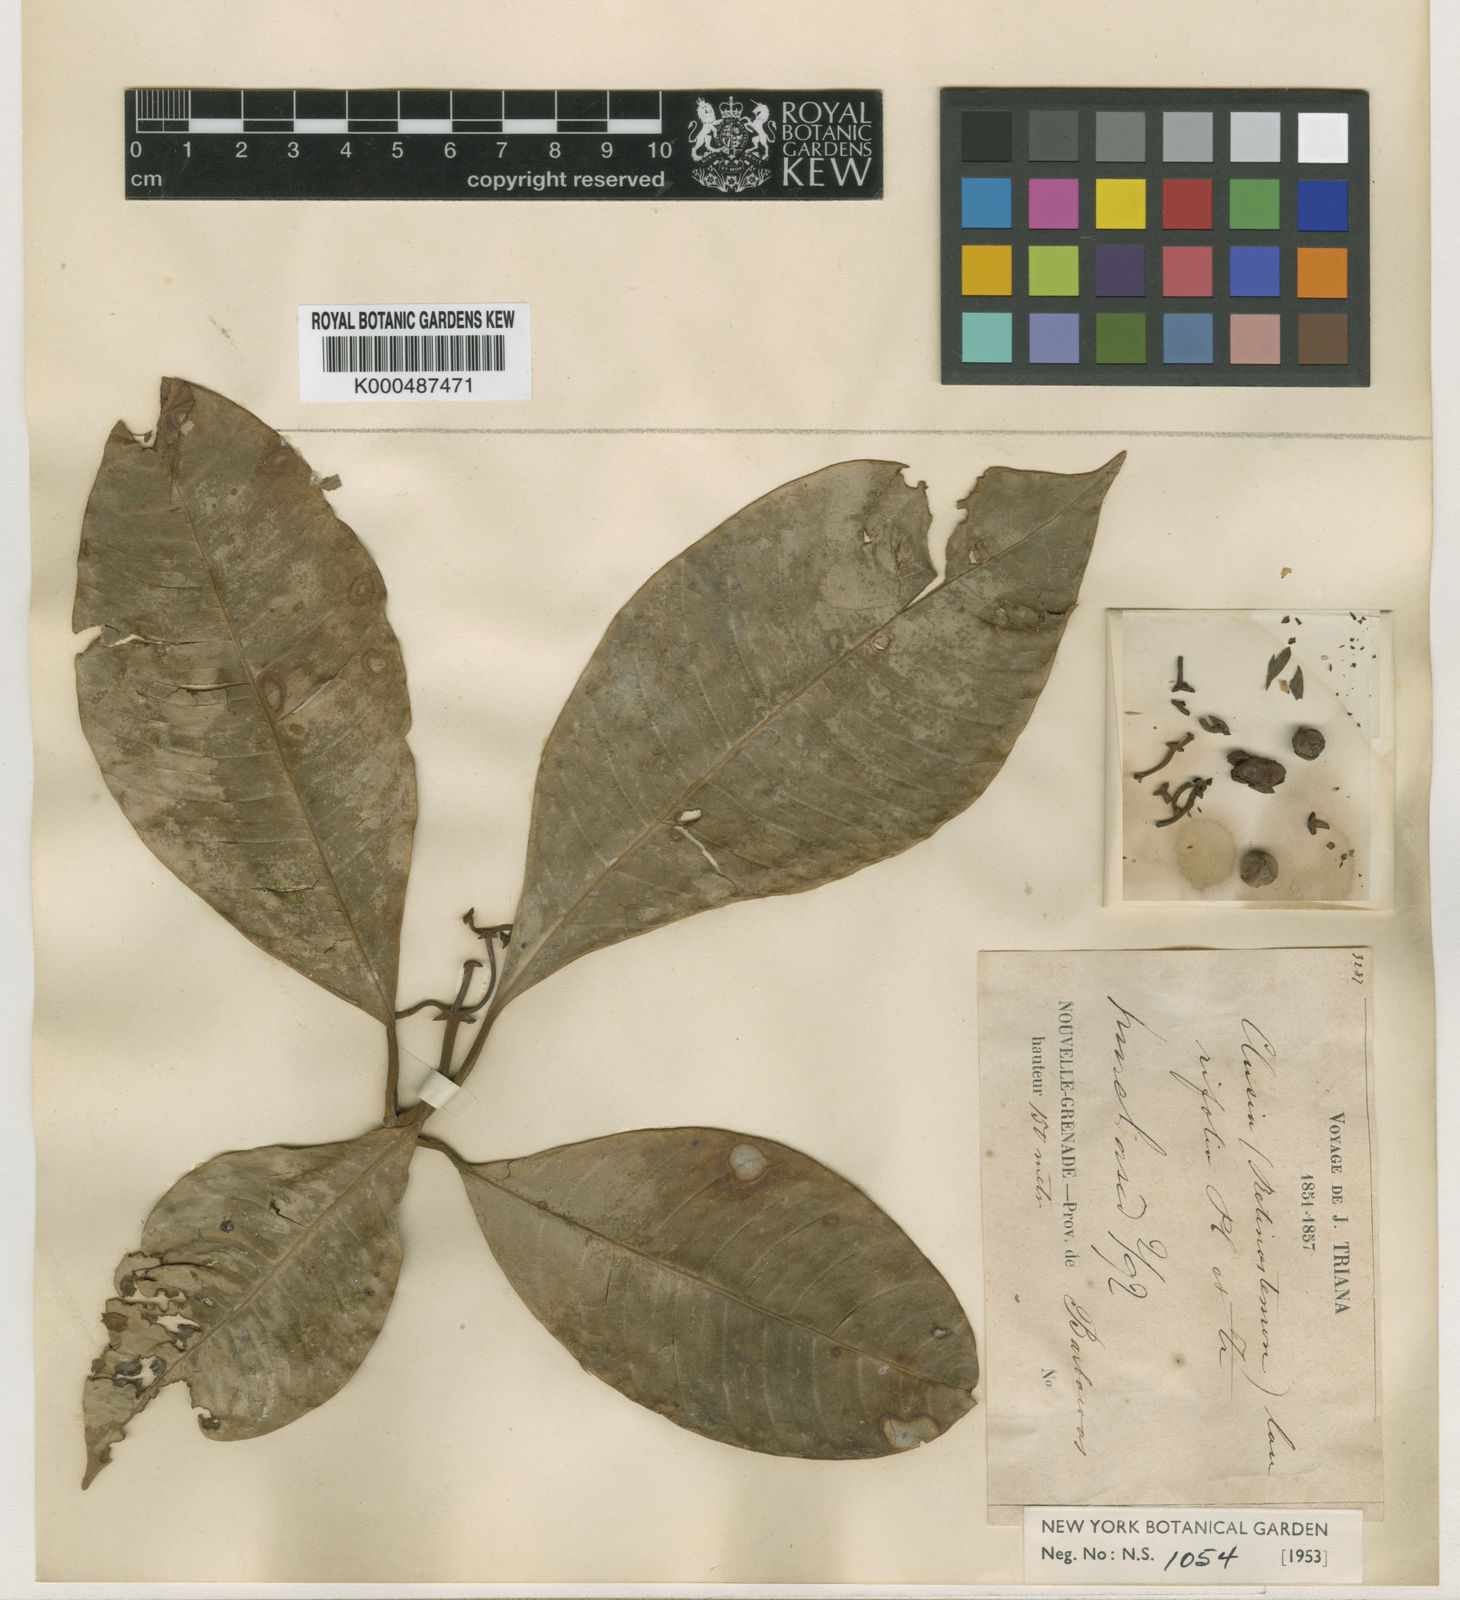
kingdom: Plantae
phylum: Tracheophyta
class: Magnoliopsida
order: Malpighiales
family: Clusiaceae
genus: Clusia
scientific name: Clusia laurifolia
